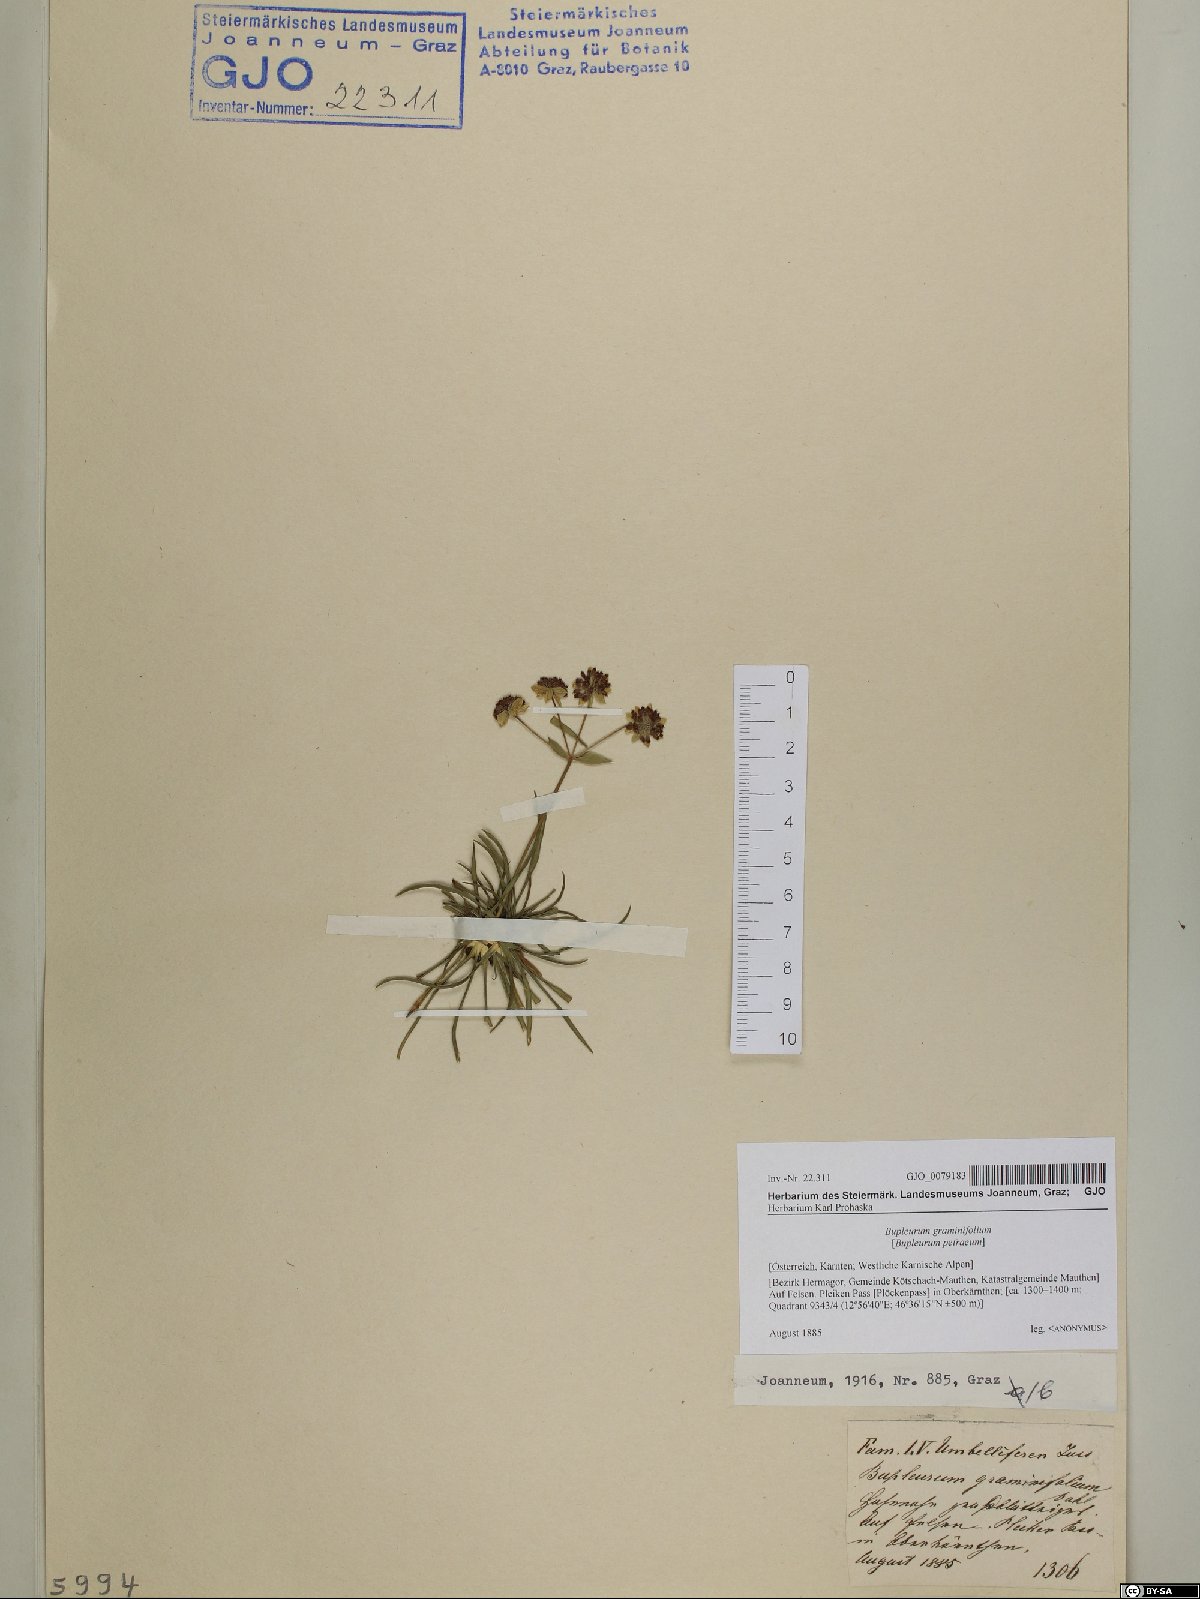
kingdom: Plantae
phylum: Tracheophyta
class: Magnoliopsida
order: Apiales
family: Apiaceae
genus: Bupleurum
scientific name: Bupleurum petraeum
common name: Rock hare's-ear
